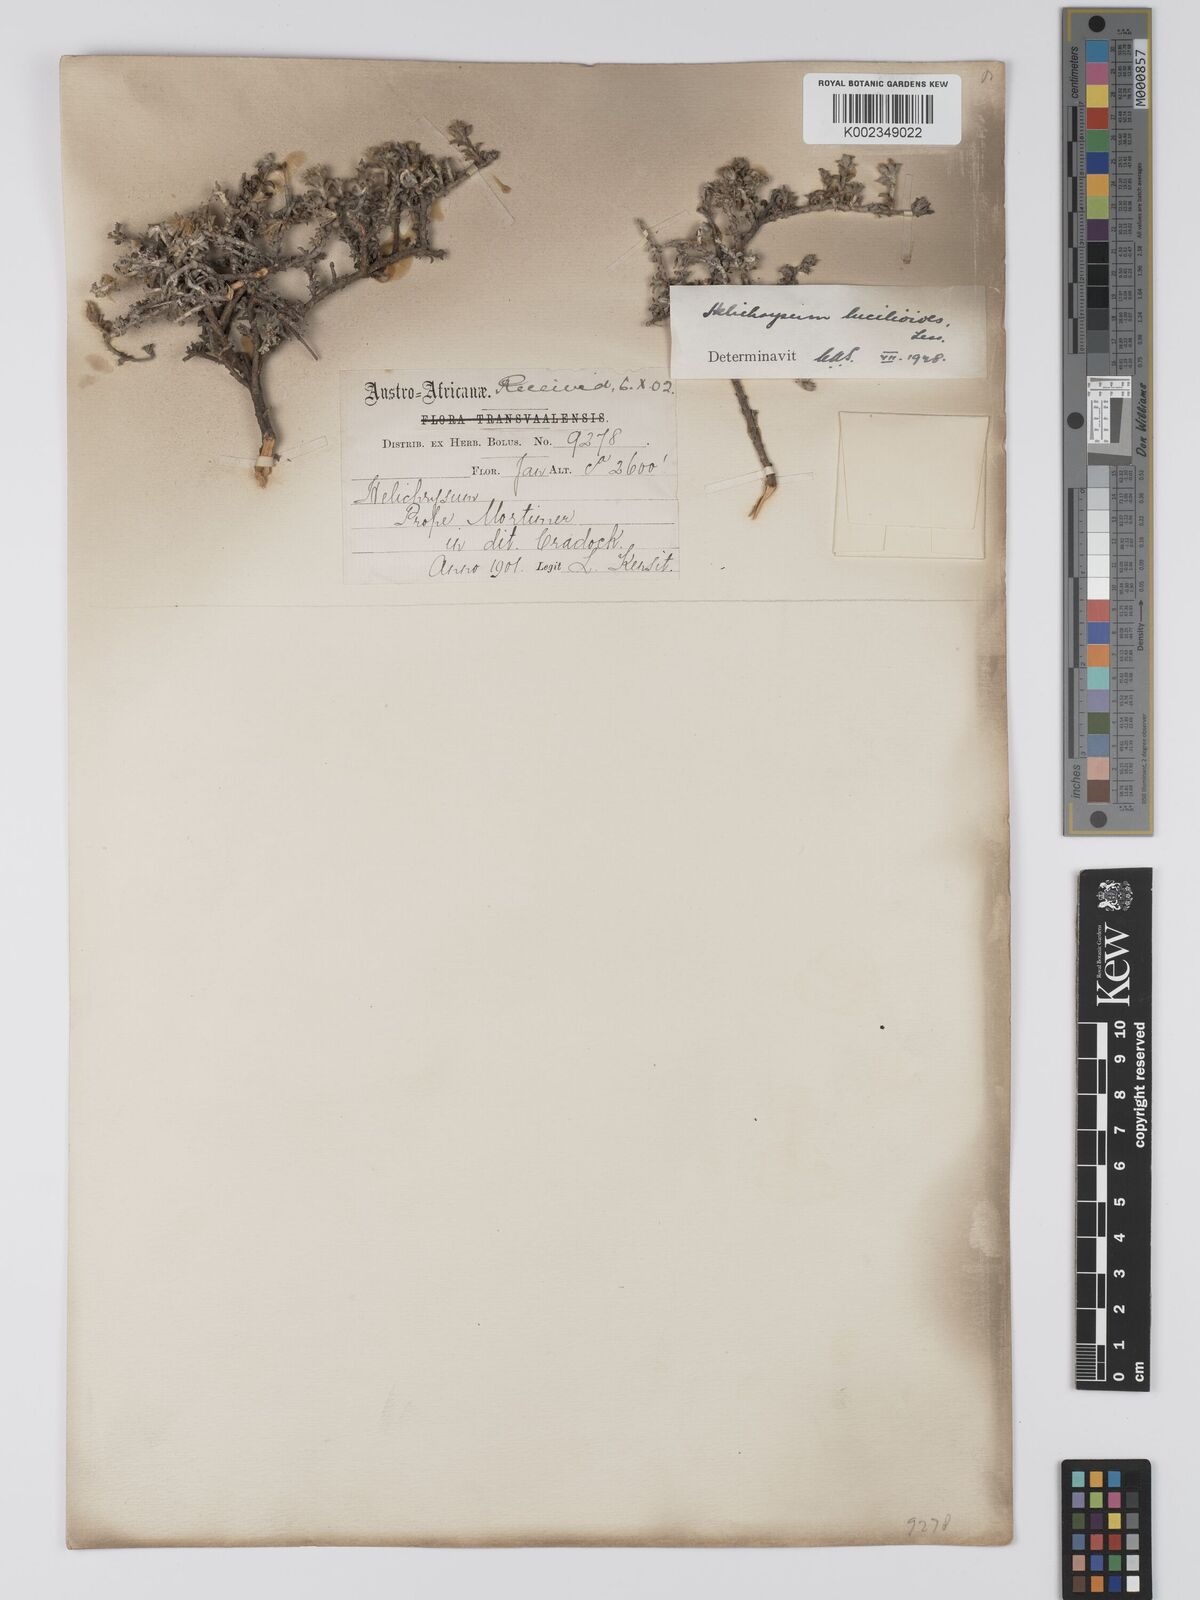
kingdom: Plantae
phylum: Tracheophyta
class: Magnoliopsida
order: Asterales
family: Asteraceae
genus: Helichrysum
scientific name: Helichrysum lucilioides
